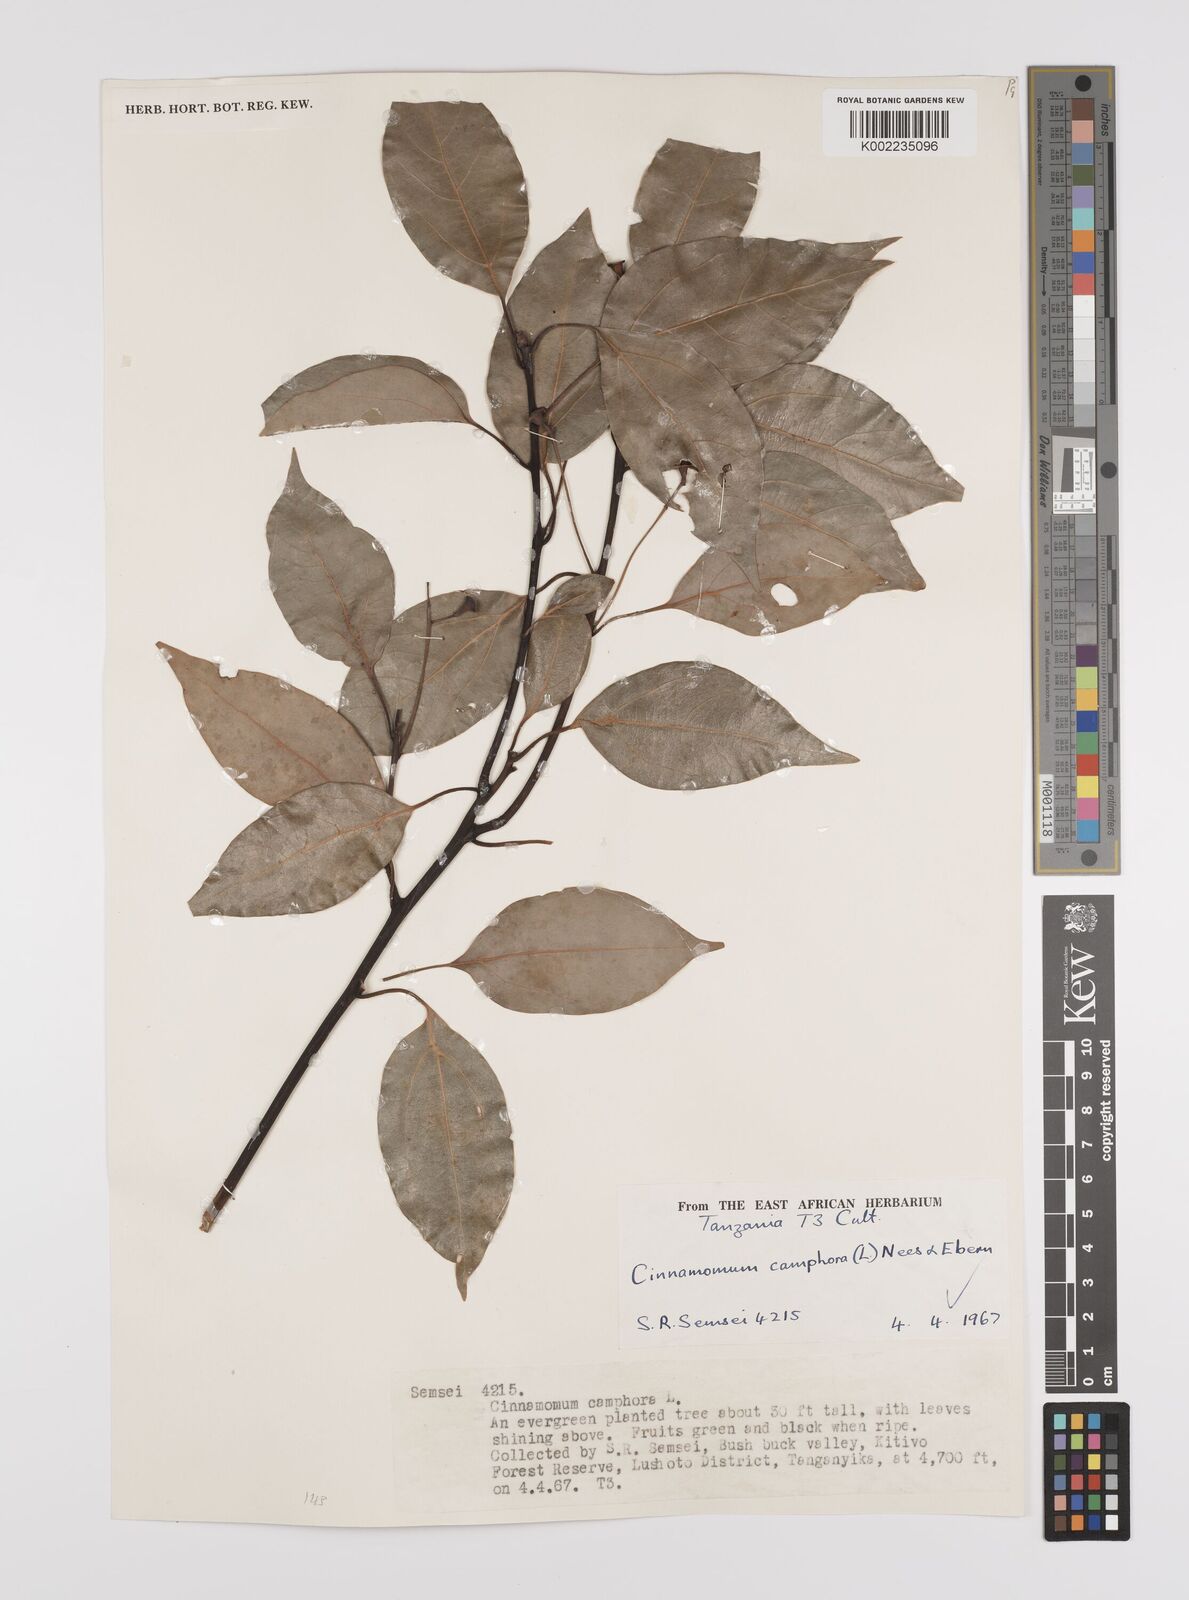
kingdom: Plantae
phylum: Tracheophyta
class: Magnoliopsida
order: Laurales
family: Lauraceae
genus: Cinnamomum
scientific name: Cinnamomum camphora
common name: Camphortree
